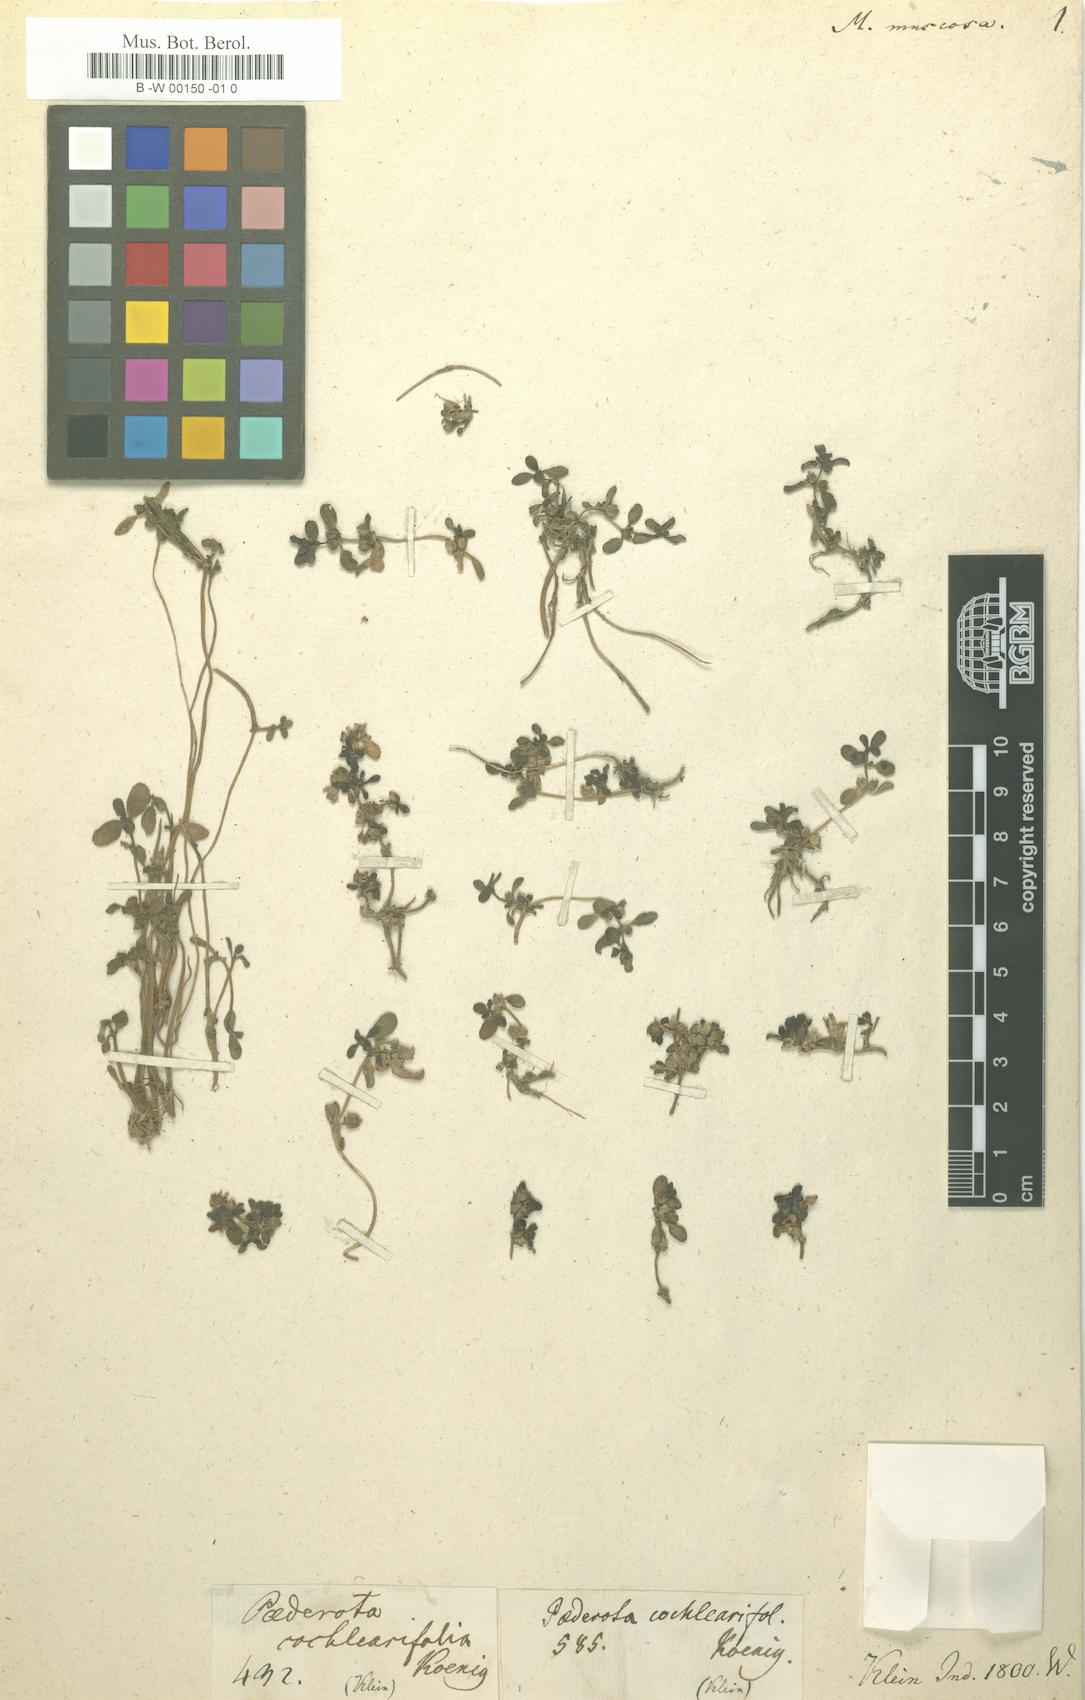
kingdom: Plantae
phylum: Tracheophyta
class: Magnoliopsida
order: Lamiales
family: Phrymaceae
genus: Microcarpaea
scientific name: Microcarpaea minima
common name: Chickweed sparrow
